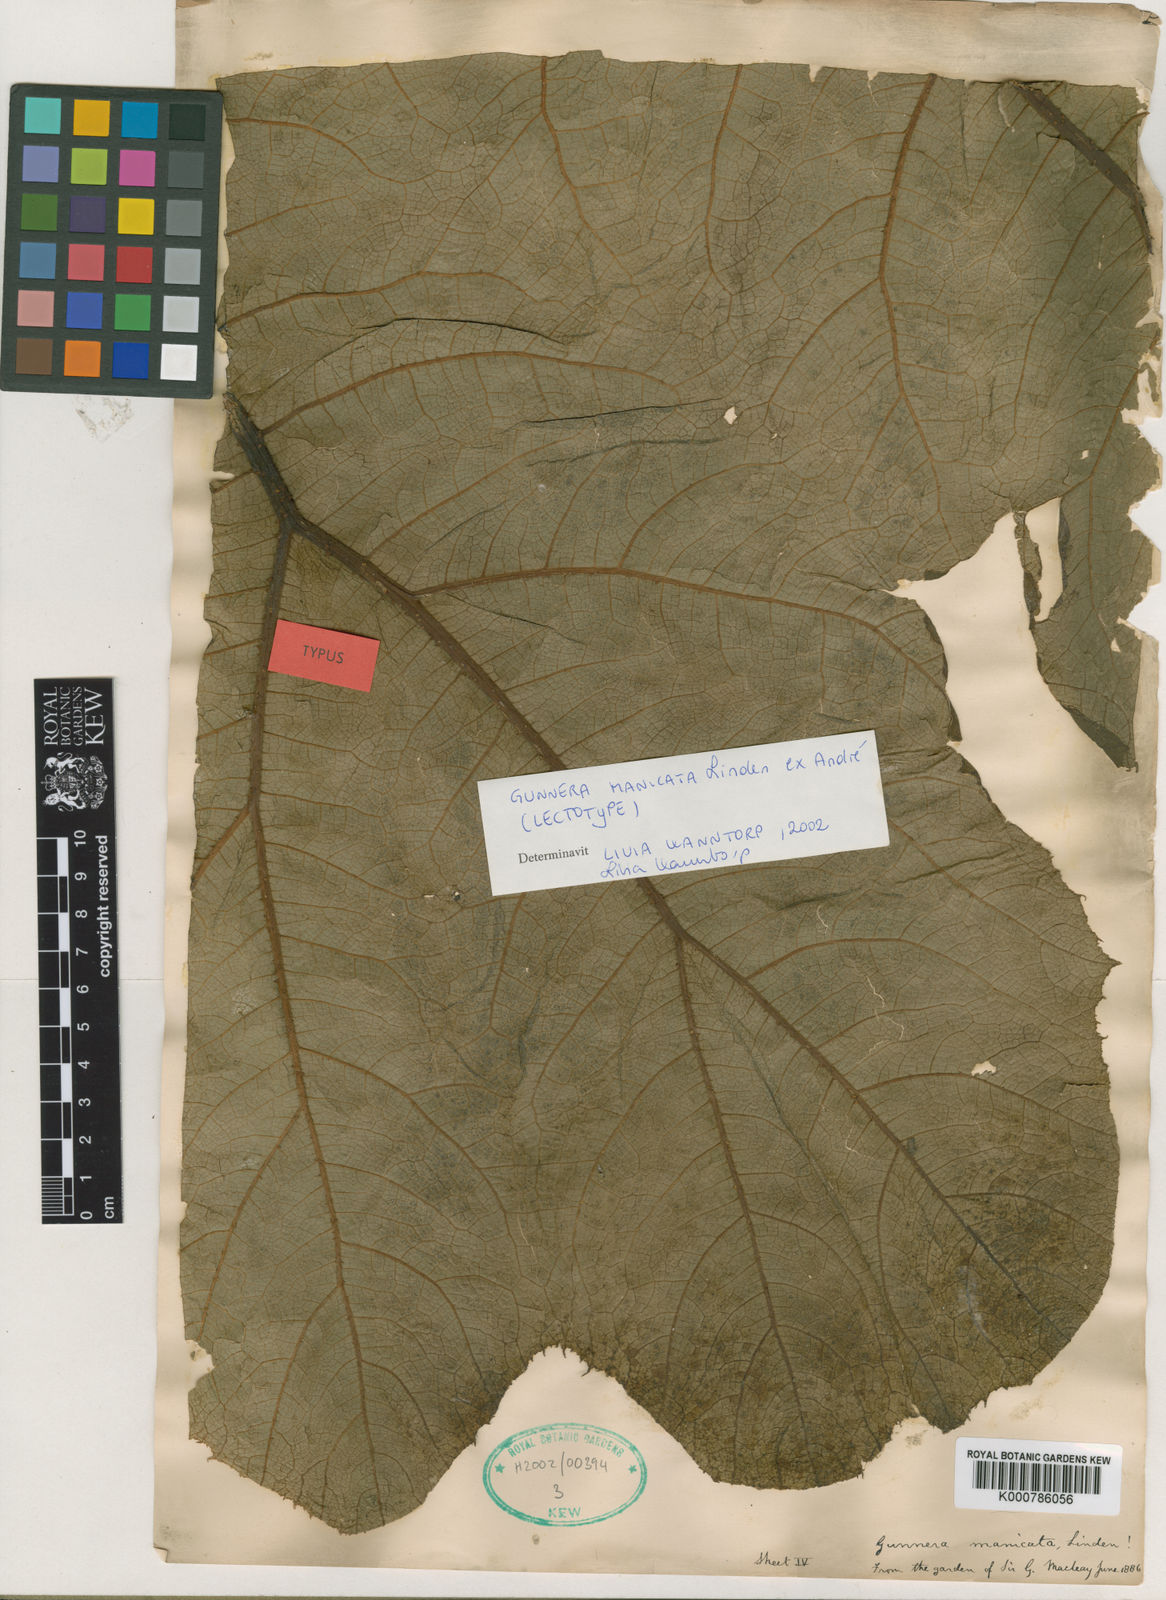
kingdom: Plantae
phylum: Tracheophyta
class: Magnoliopsida
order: Gunnerales
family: Gunneraceae
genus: Gunnera
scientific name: Gunnera manicata
